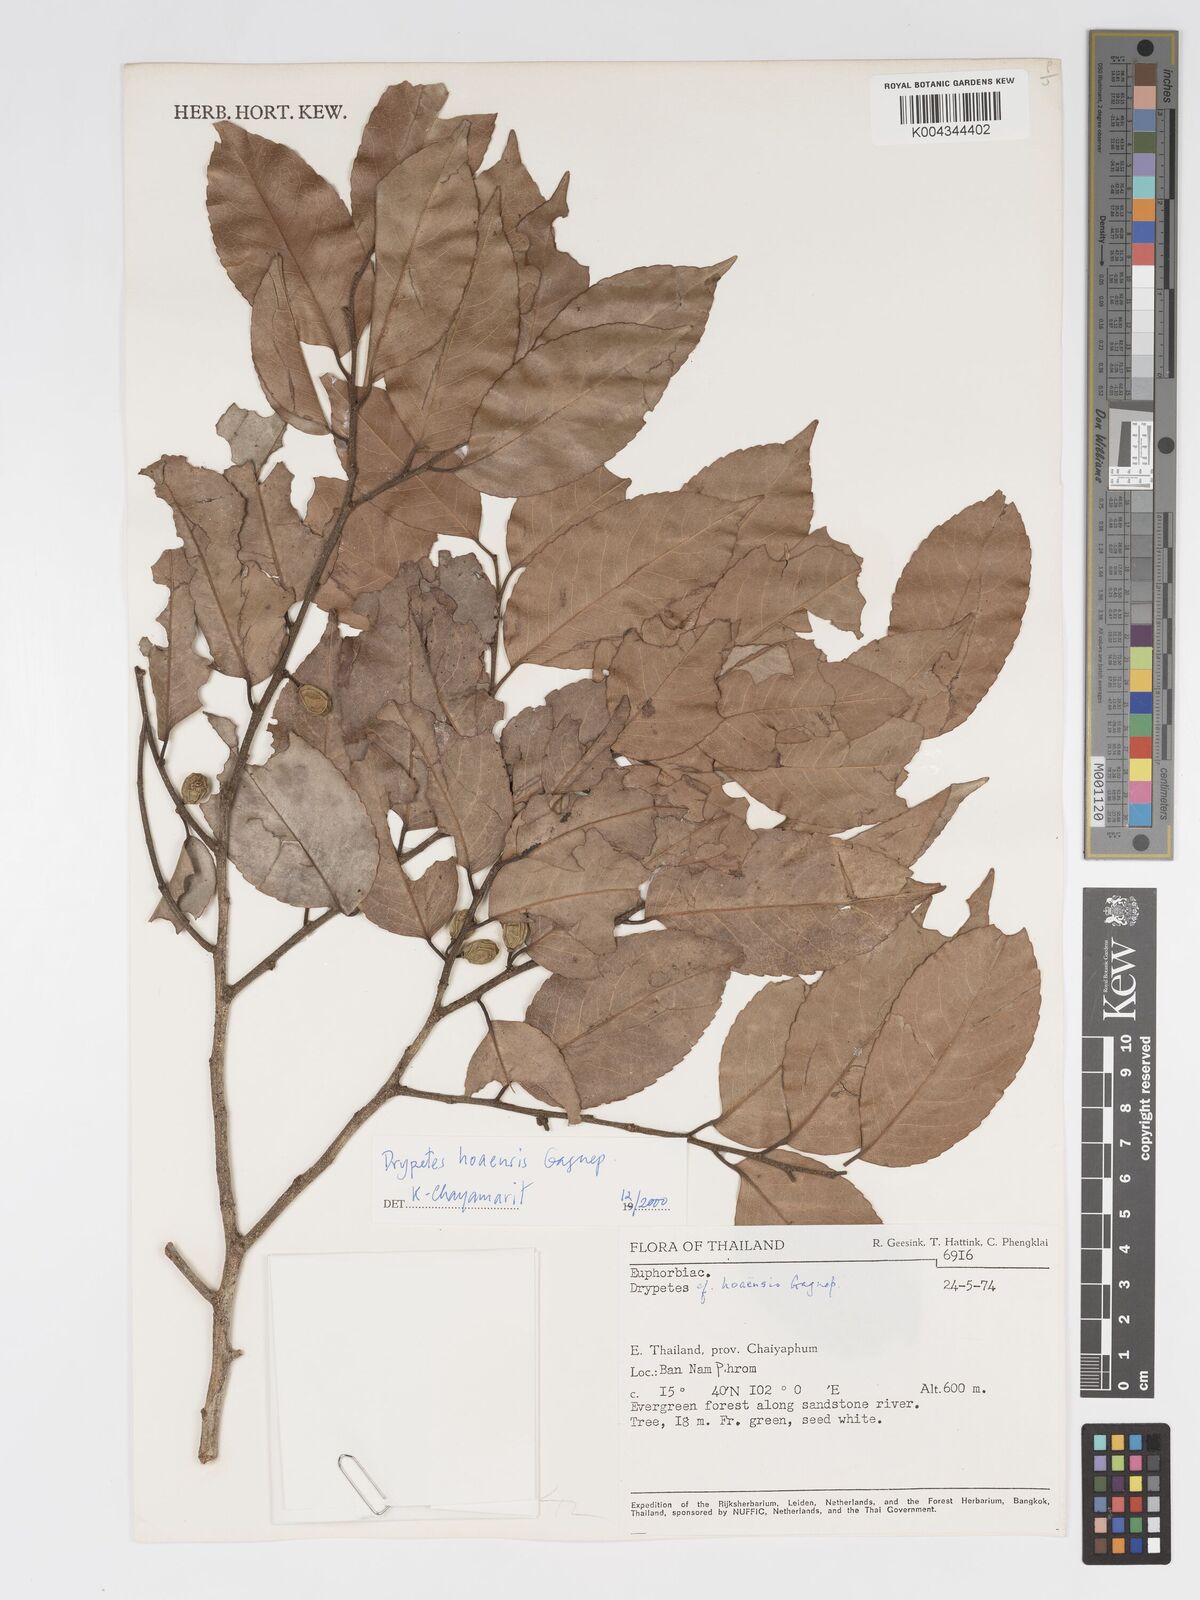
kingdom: Plantae
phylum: Tracheophyta
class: Magnoliopsida
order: Malpighiales
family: Putranjivaceae
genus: Drypetes
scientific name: Drypetes hoaensis
